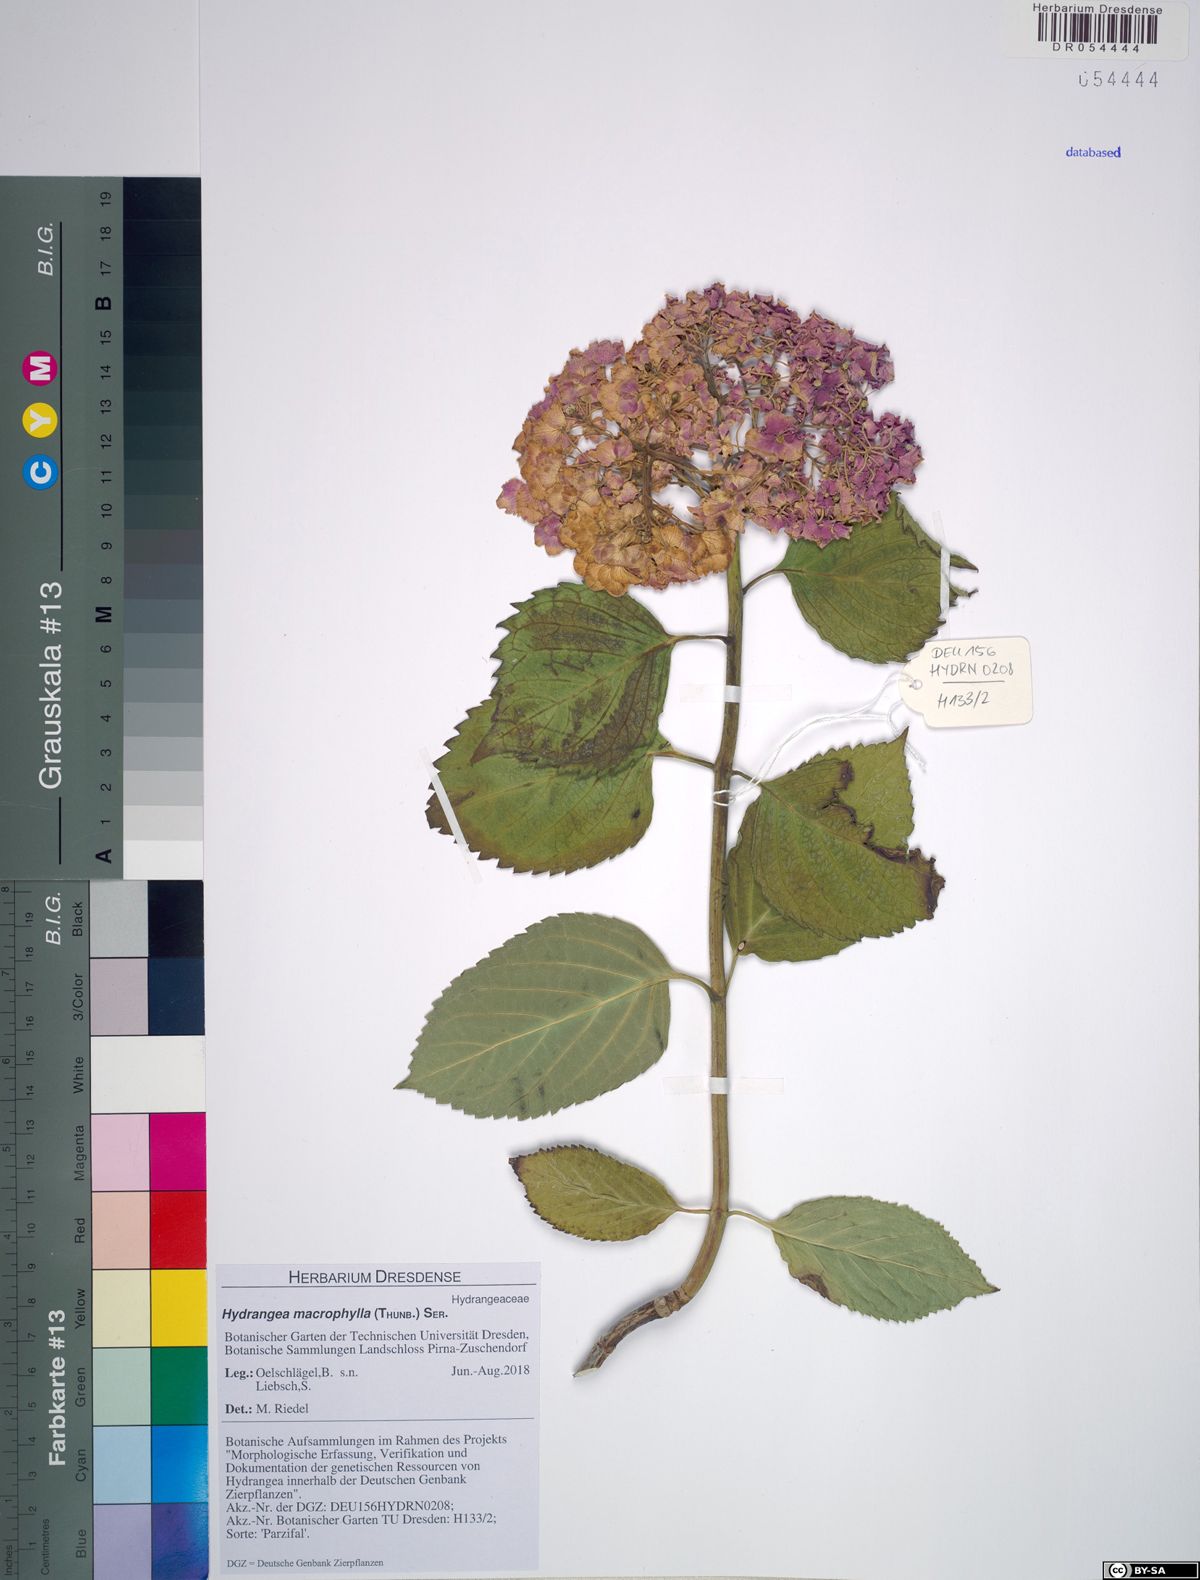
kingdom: Plantae
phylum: Tracheophyta
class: Magnoliopsida
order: Cornales
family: Hydrangeaceae
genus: Hydrangea
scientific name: Hydrangea macrophylla
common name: Hydrangea
